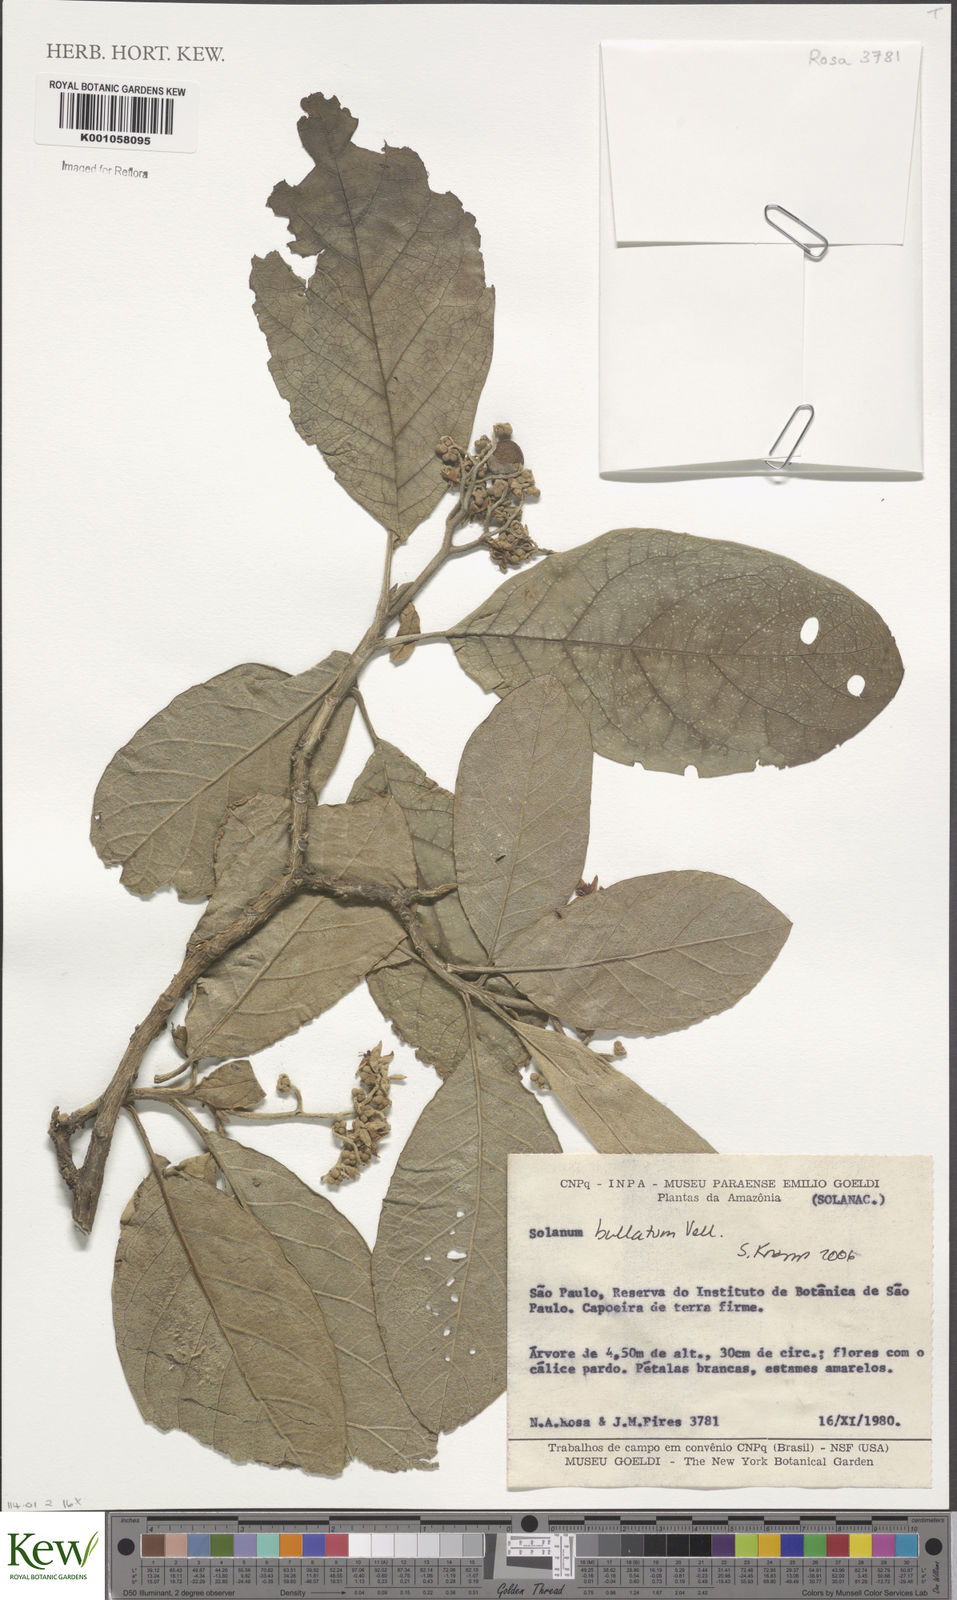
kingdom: Plantae
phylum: Tracheophyta
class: Magnoliopsida
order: Solanales
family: Solanaceae
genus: Solanum
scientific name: Solanum bullatum
